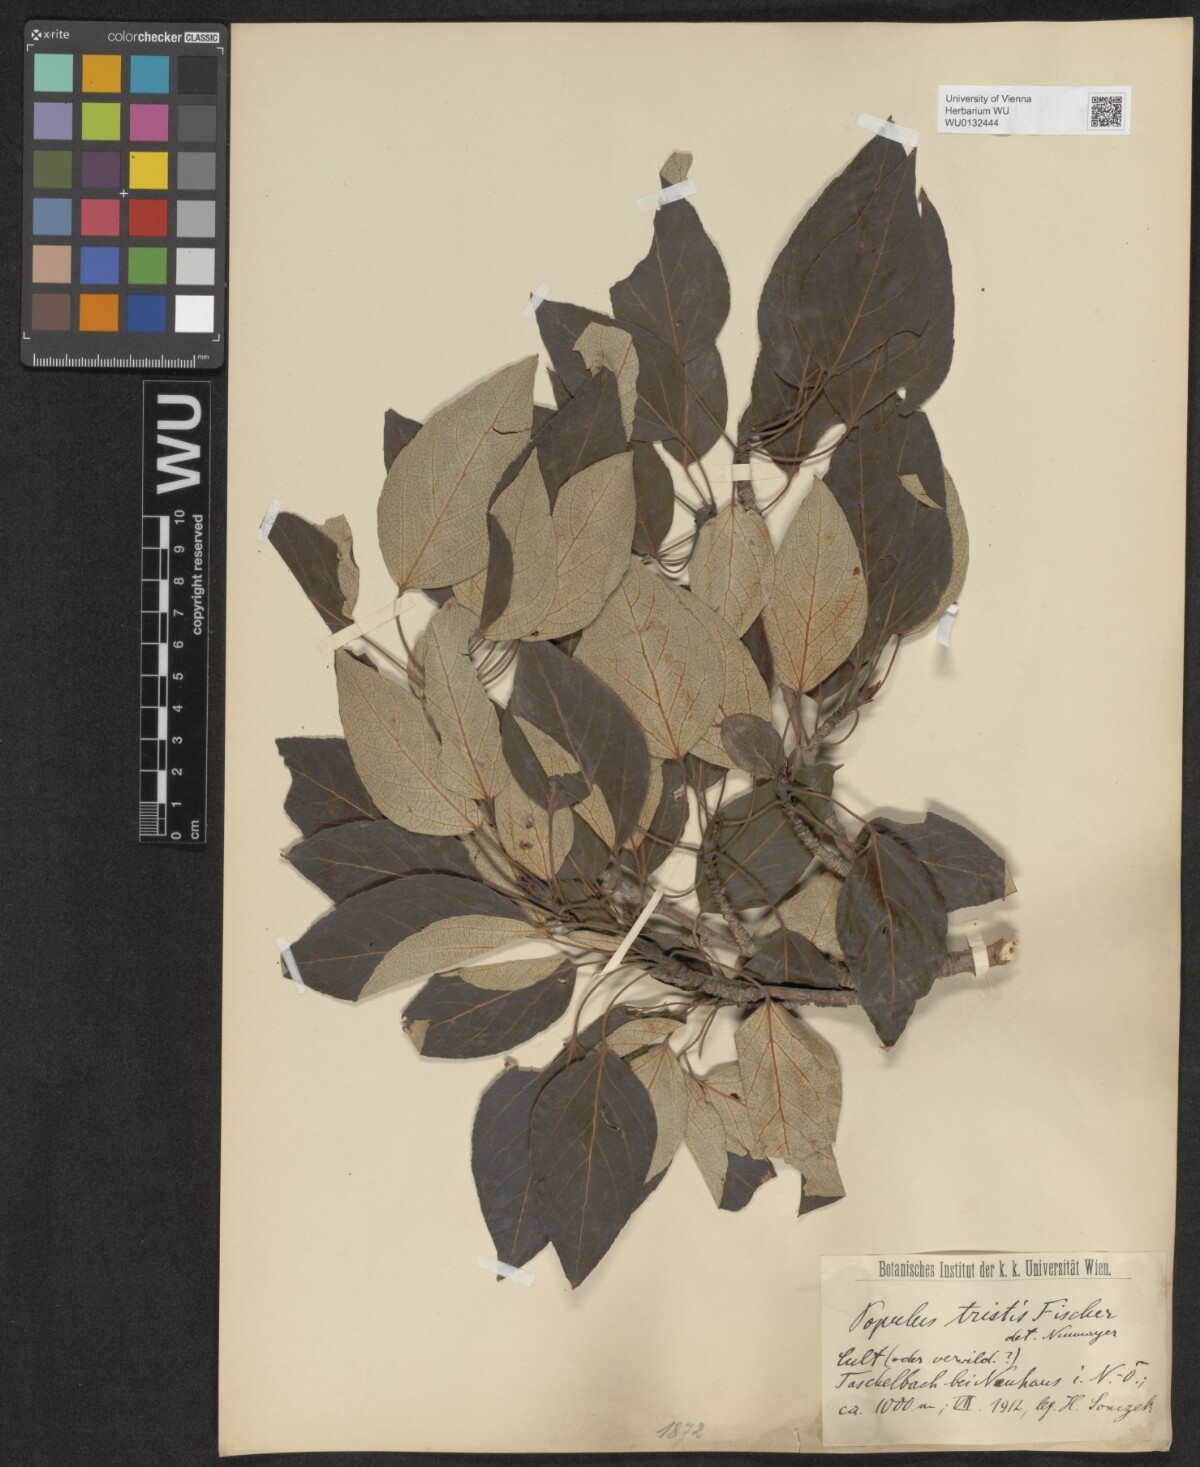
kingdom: Plantae
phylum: Tracheophyta
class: Magnoliopsida
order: Malpighiales
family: Salicaceae
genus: Populus
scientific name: Populus trichocarpa
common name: Black cottonwood
